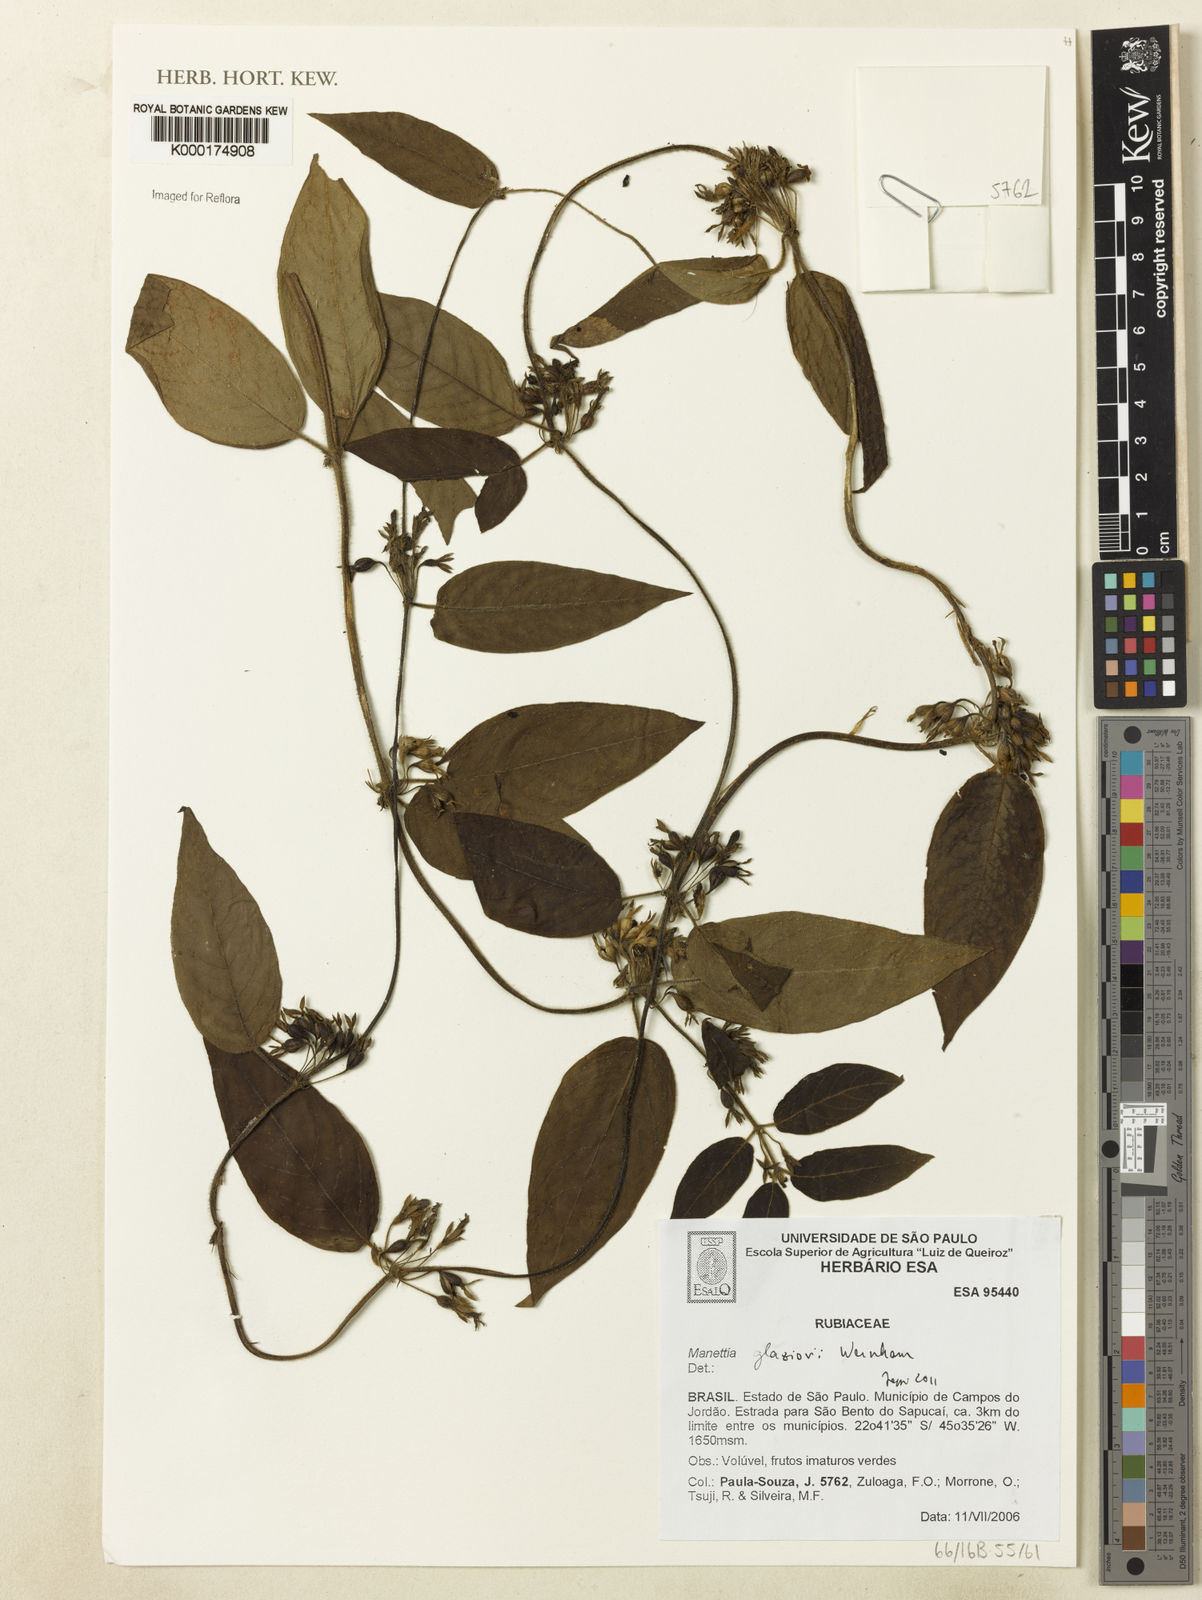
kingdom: Plantae
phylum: Tracheophyta
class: Magnoliopsida
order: Gentianales
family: Rubiaceae
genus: Manettia
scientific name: Manettia glaziovii
